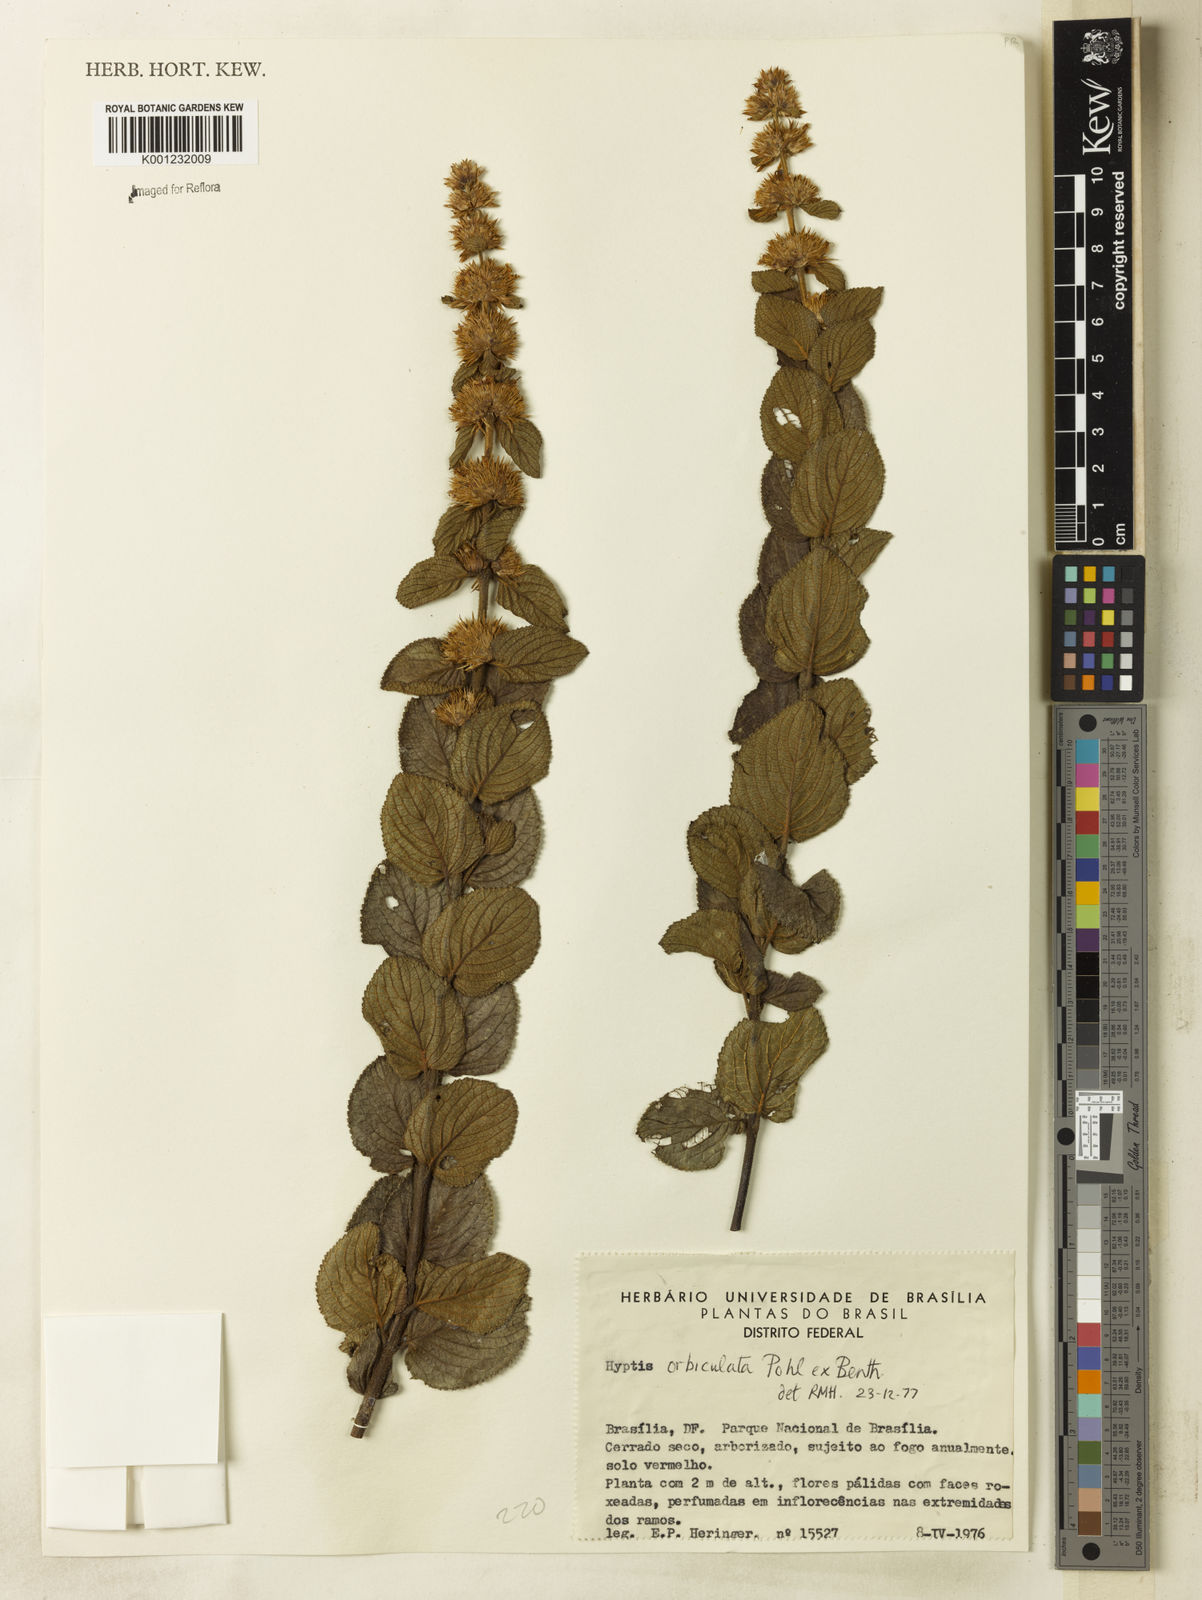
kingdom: Plantae
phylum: Tracheophyta
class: Magnoliopsida
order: Lamiales
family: Lamiaceae
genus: Hyptis
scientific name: Hyptis orbiculata
